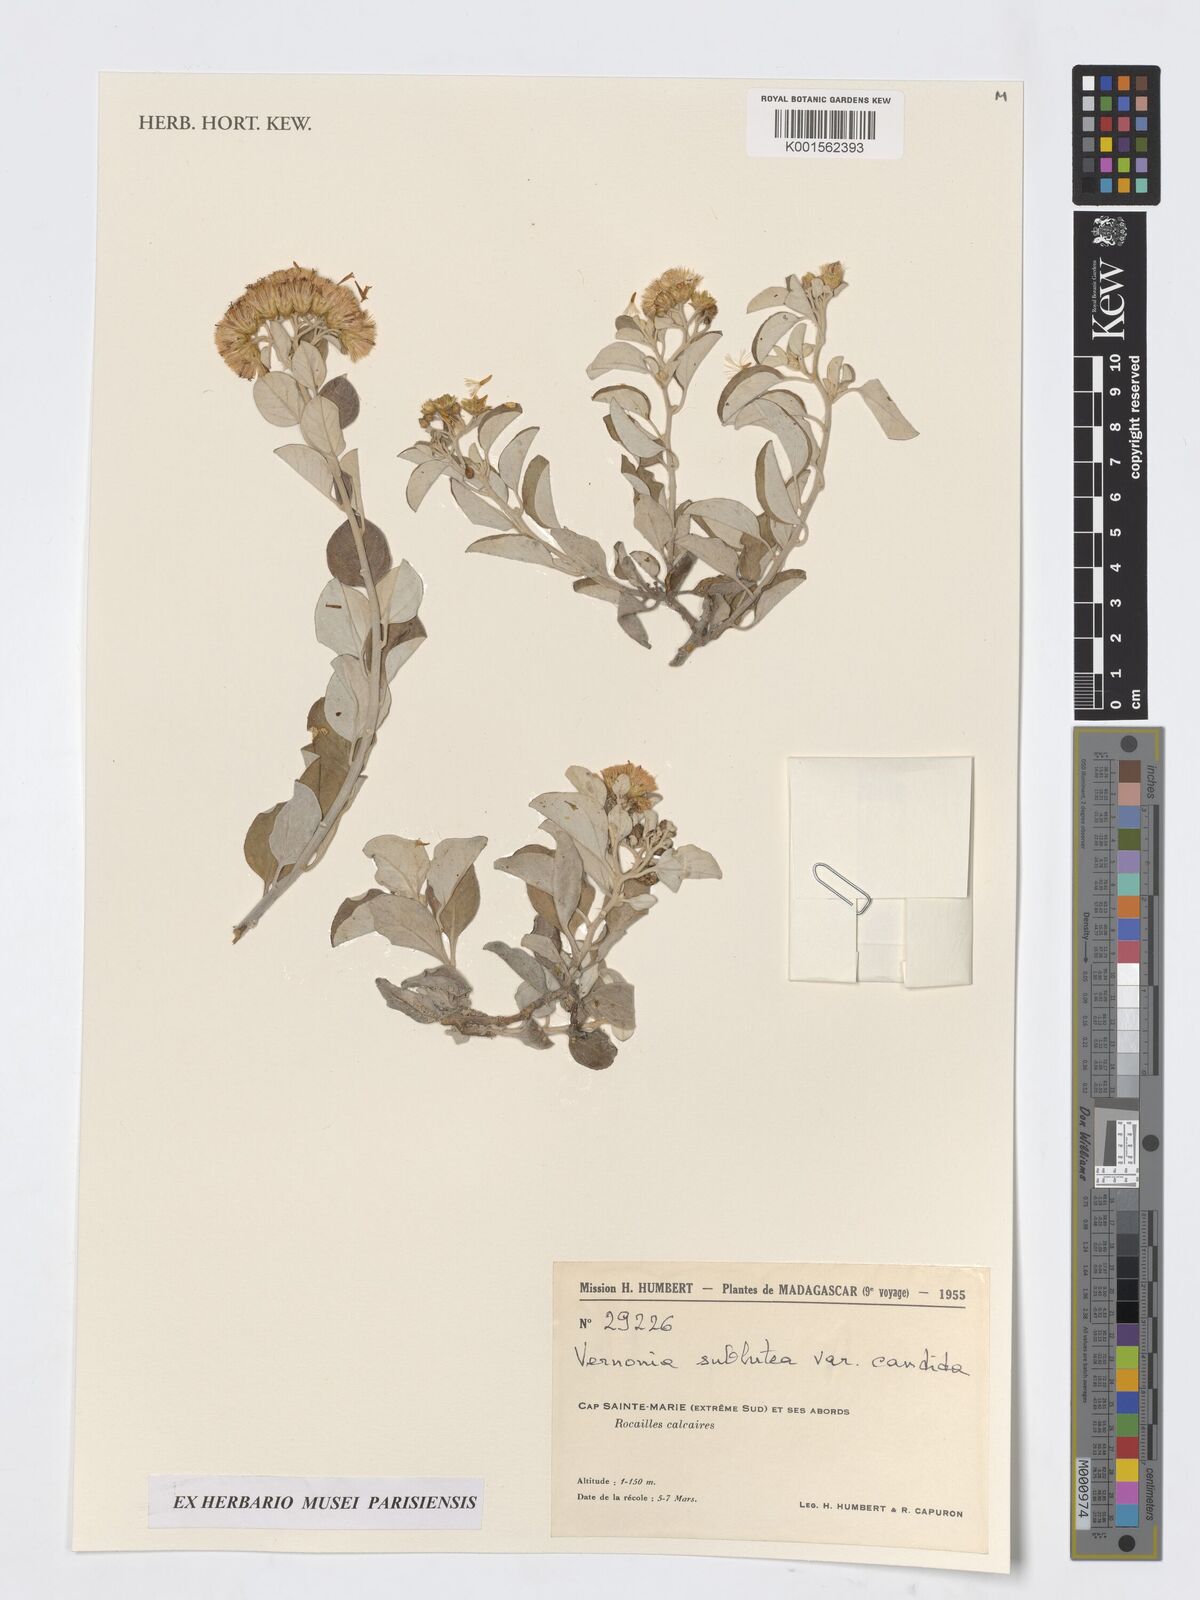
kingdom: Plantae
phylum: Tracheophyta
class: Magnoliopsida
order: Asterales
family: Asteraceae
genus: Distephanus
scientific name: Distephanus subluteus
